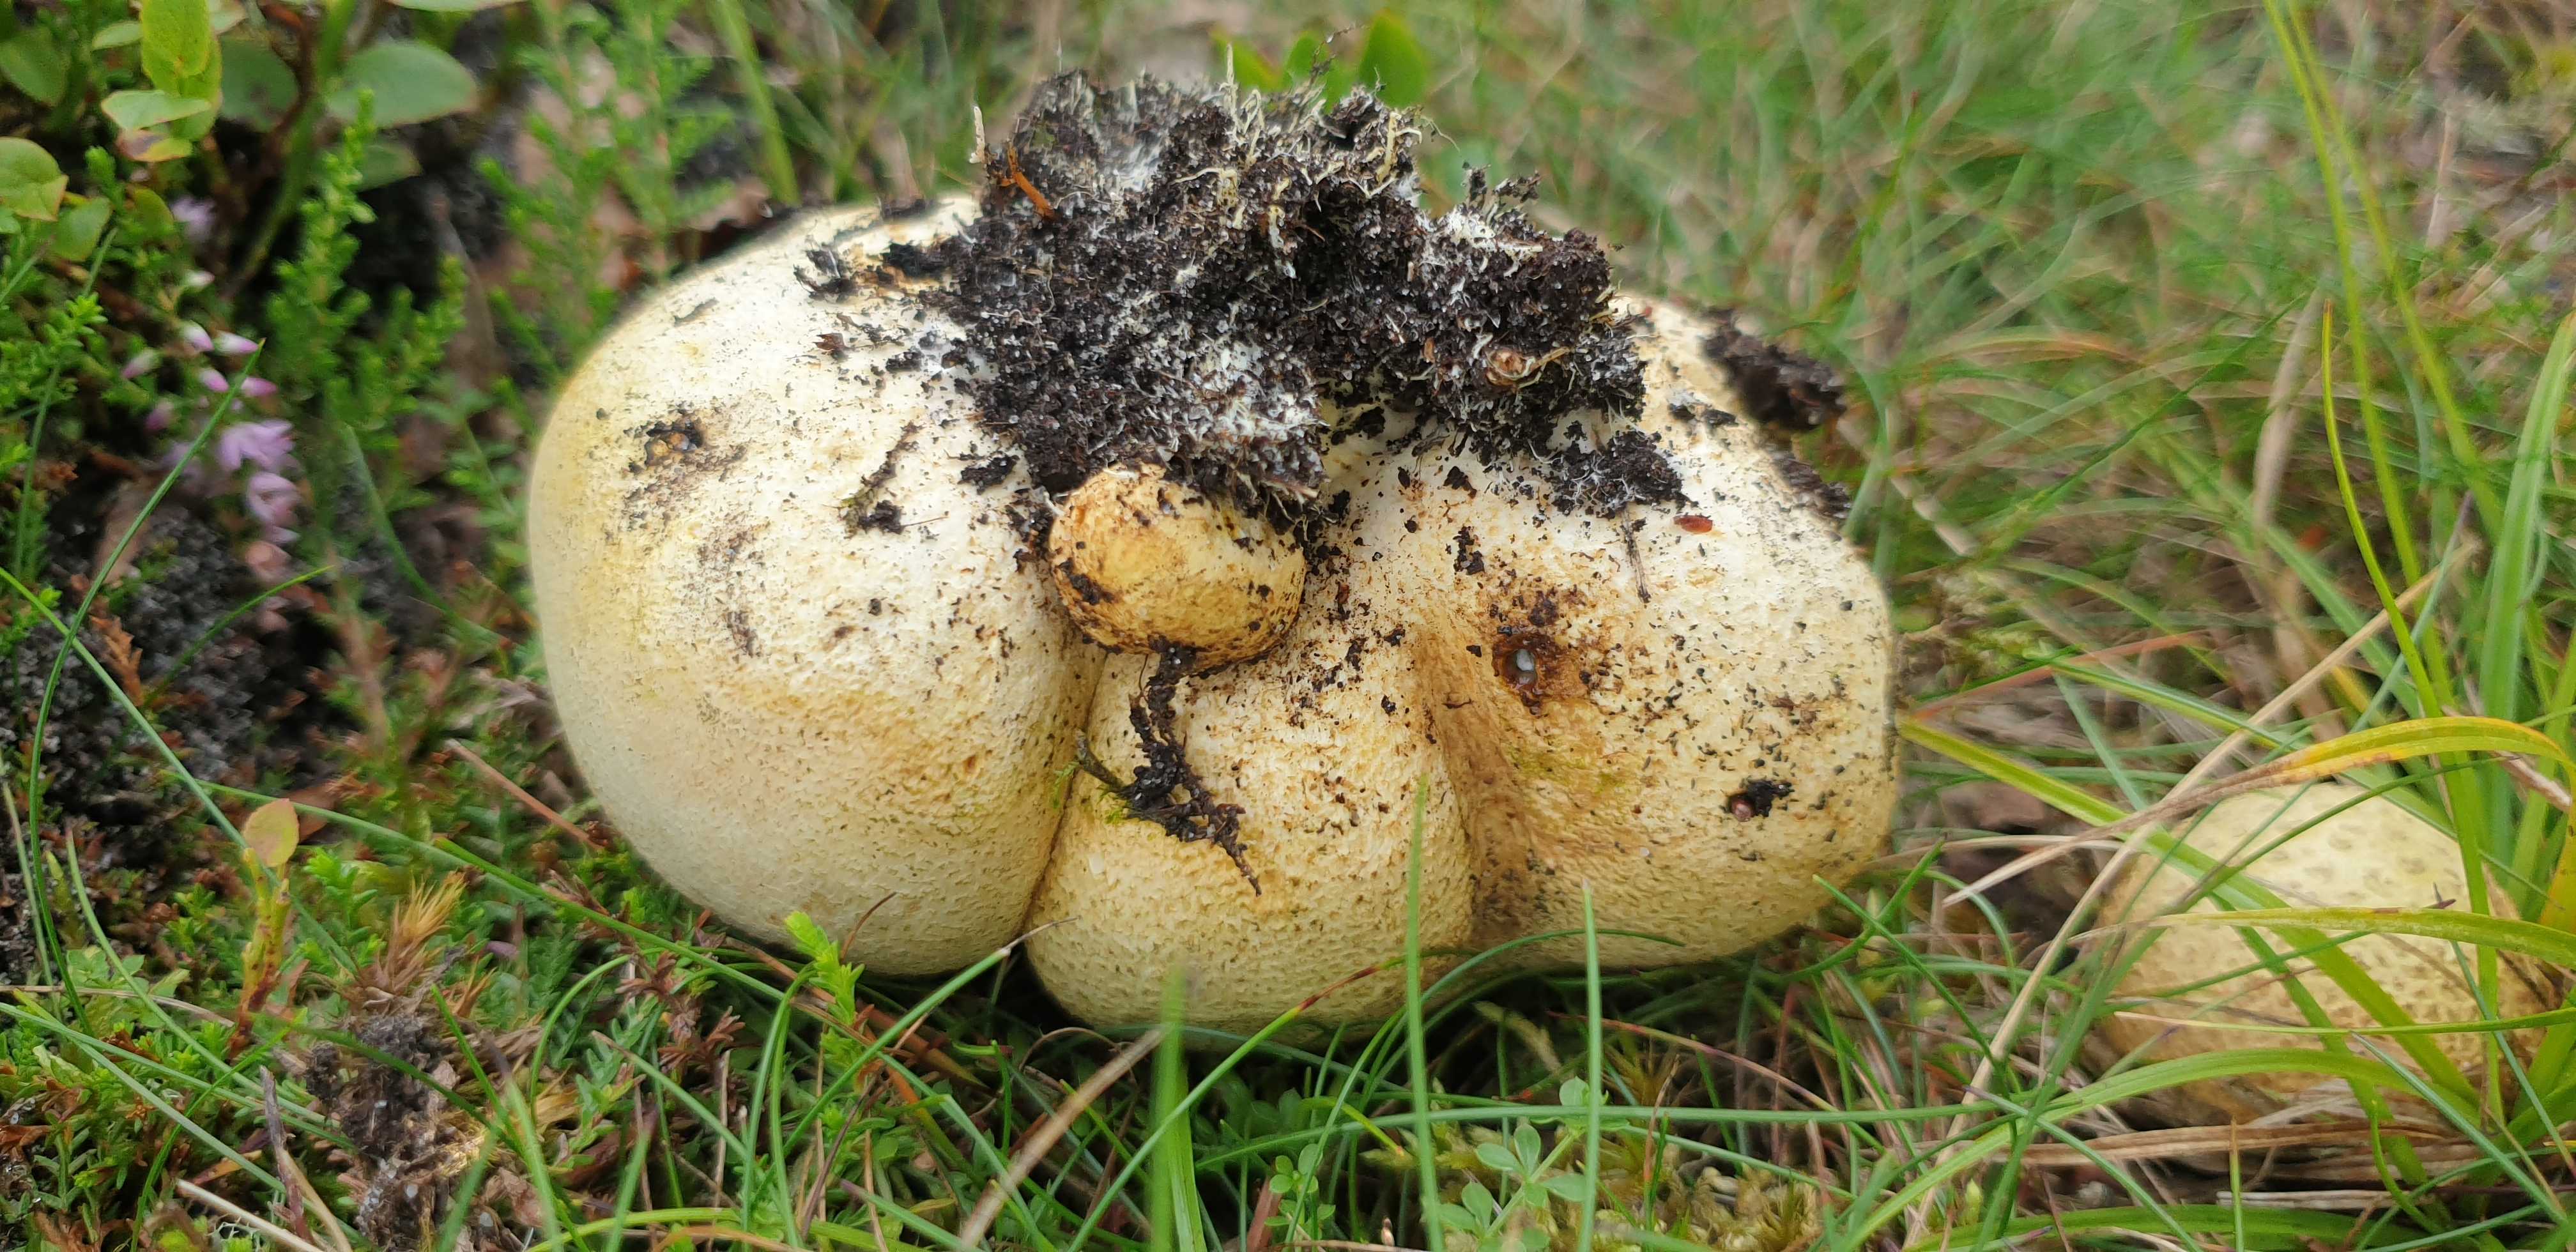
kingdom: Fungi
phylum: Basidiomycota
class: Agaricomycetes
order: Boletales
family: Sclerodermataceae
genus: Scleroderma
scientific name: Scleroderma citrinum
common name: almindelig bruskbold
